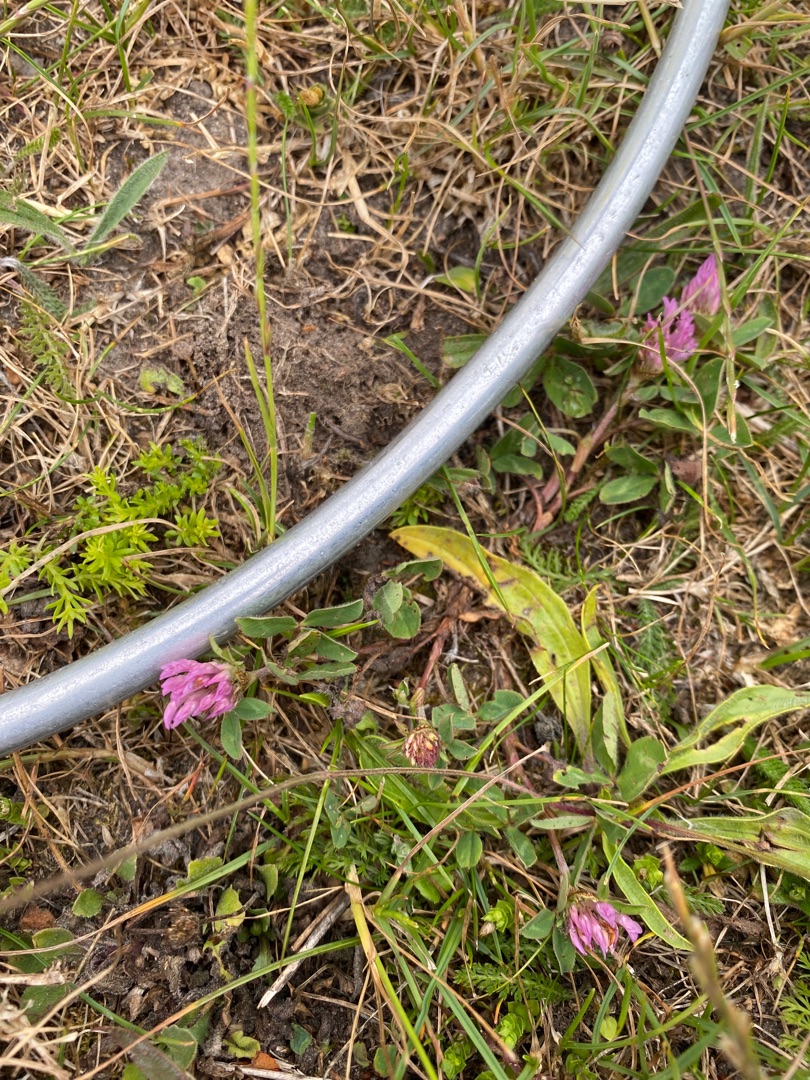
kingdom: Plantae
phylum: Tracheophyta
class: Magnoliopsida
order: Fabales
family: Fabaceae
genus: Trifolium
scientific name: Trifolium pratense
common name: Rød-kløver
